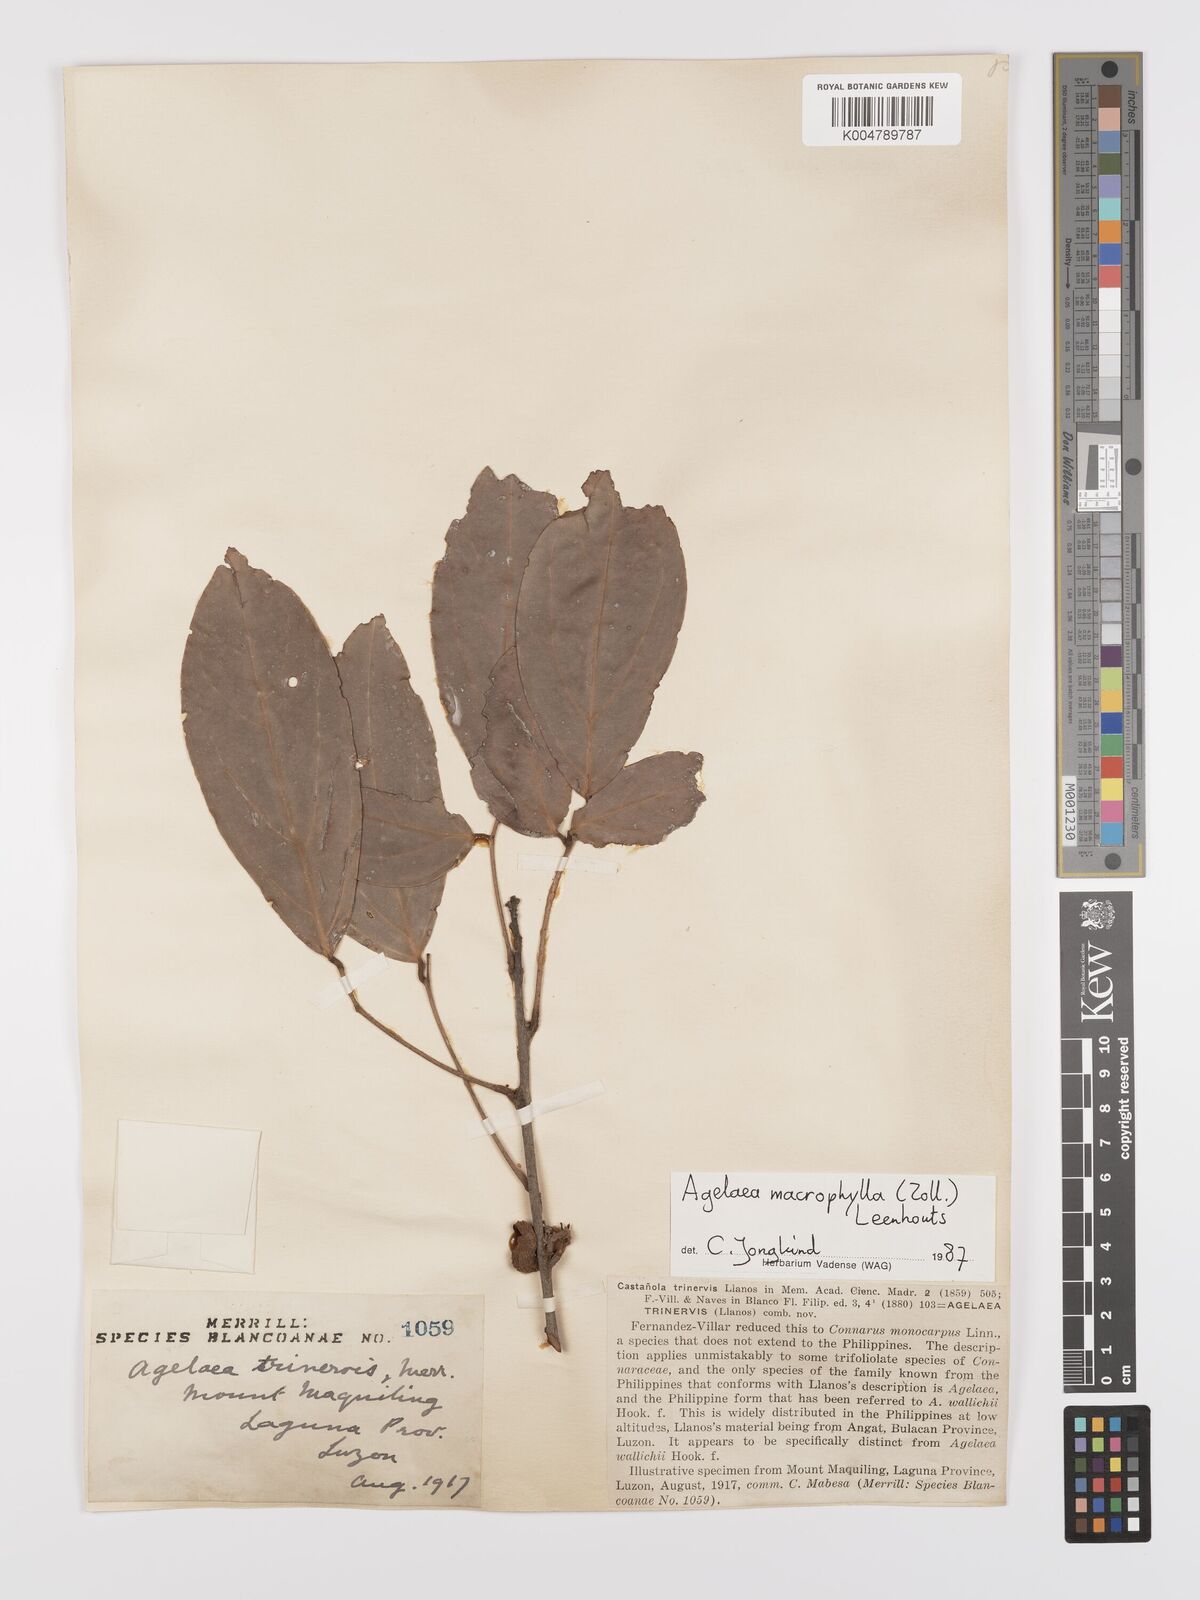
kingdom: Plantae
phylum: Tracheophyta
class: Magnoliopsida
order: Oxalidales
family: Connaraceae
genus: Agelaea
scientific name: Agelaea trinervis
